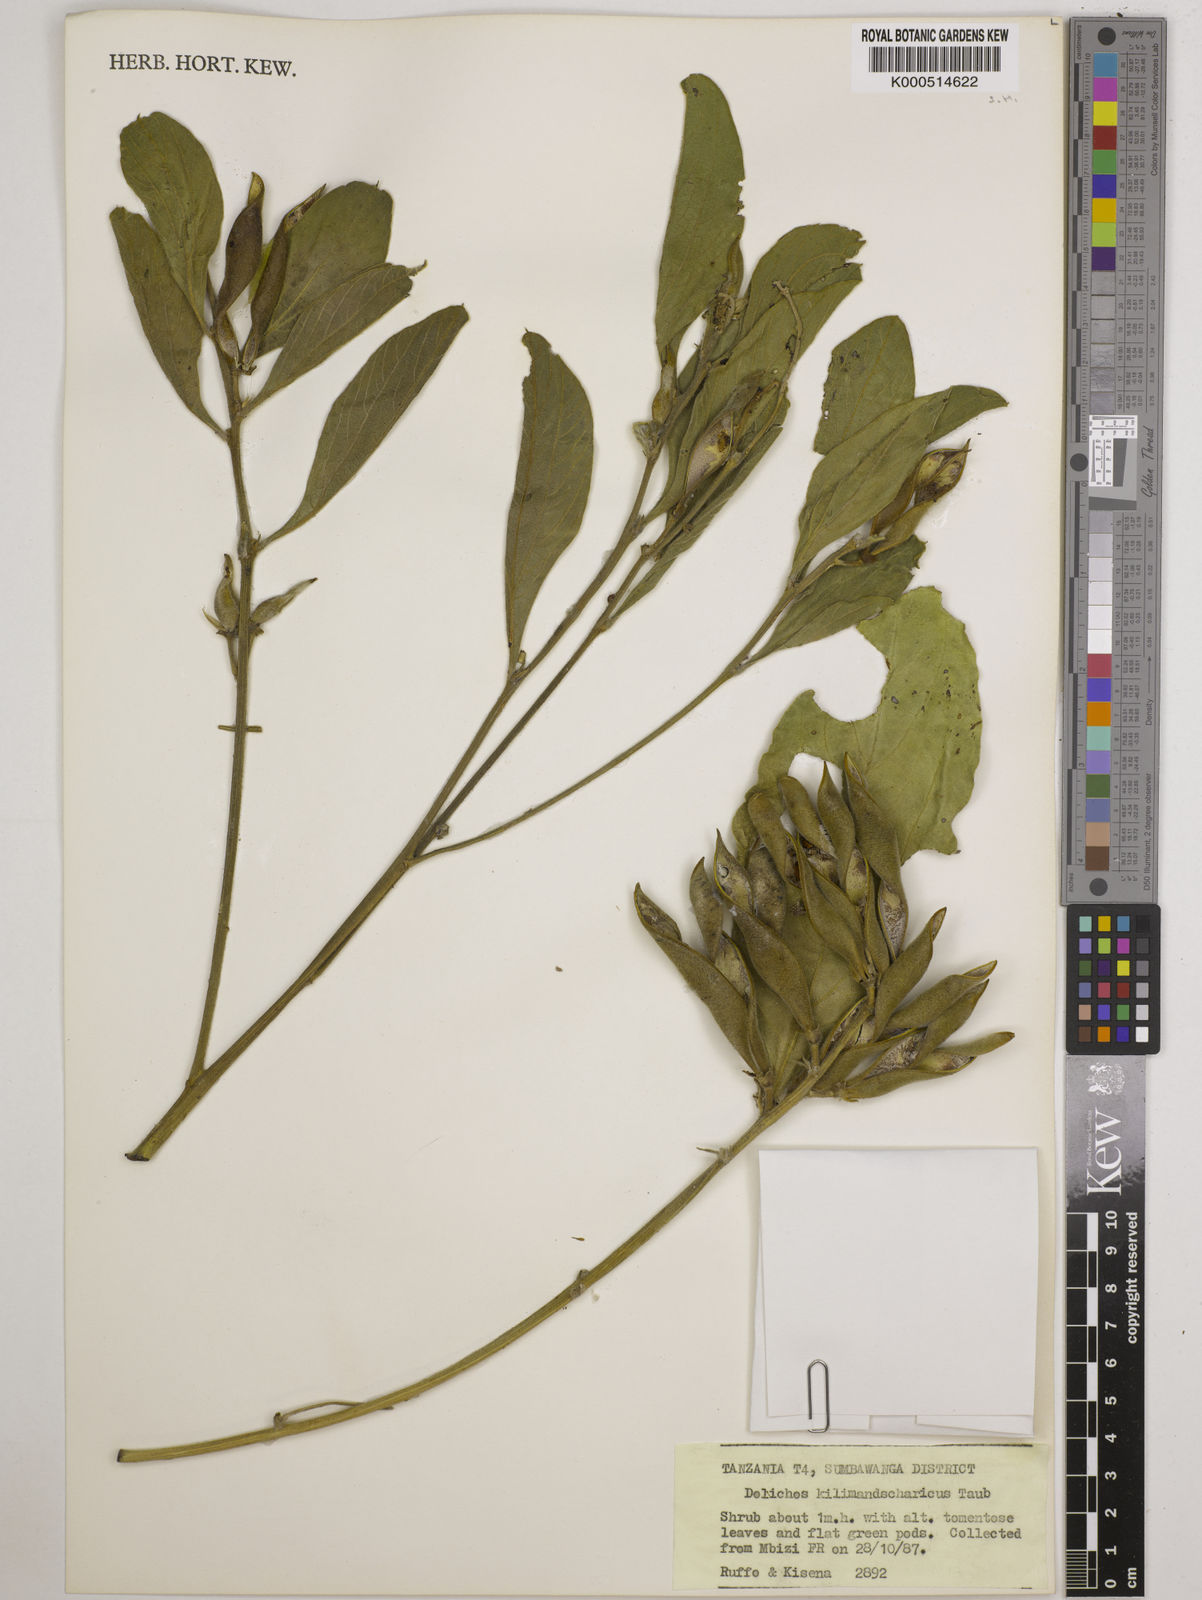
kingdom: Plantae
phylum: Tracheophyta
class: Magnoliopsida
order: Fabales
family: Fabaceae
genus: Dolichos
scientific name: Dolichos kilimandscharicus
